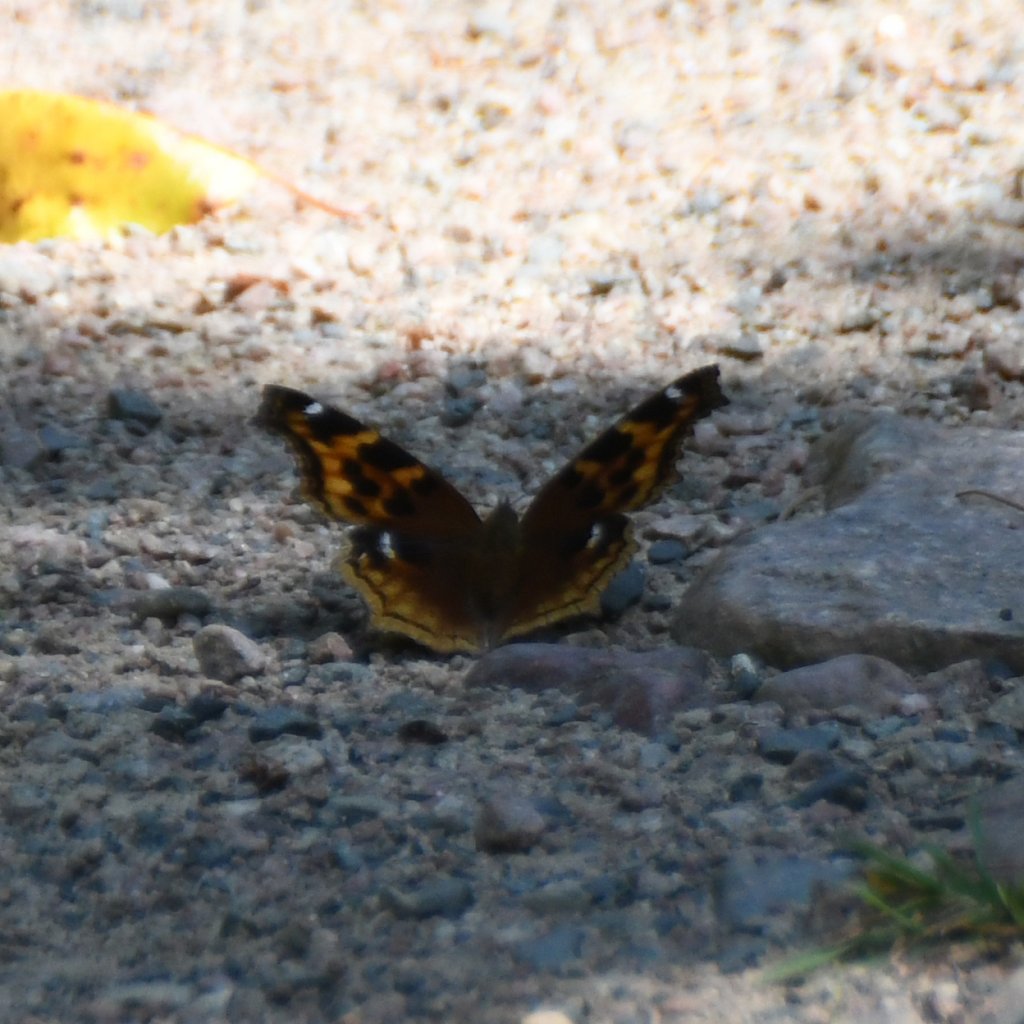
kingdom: Animalia
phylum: Arthropoda
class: Insecta
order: Lepidoptera
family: Nymphalidae
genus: Polygonia
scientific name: Polygonia vaualbum
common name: Compton Tortoiseshell
